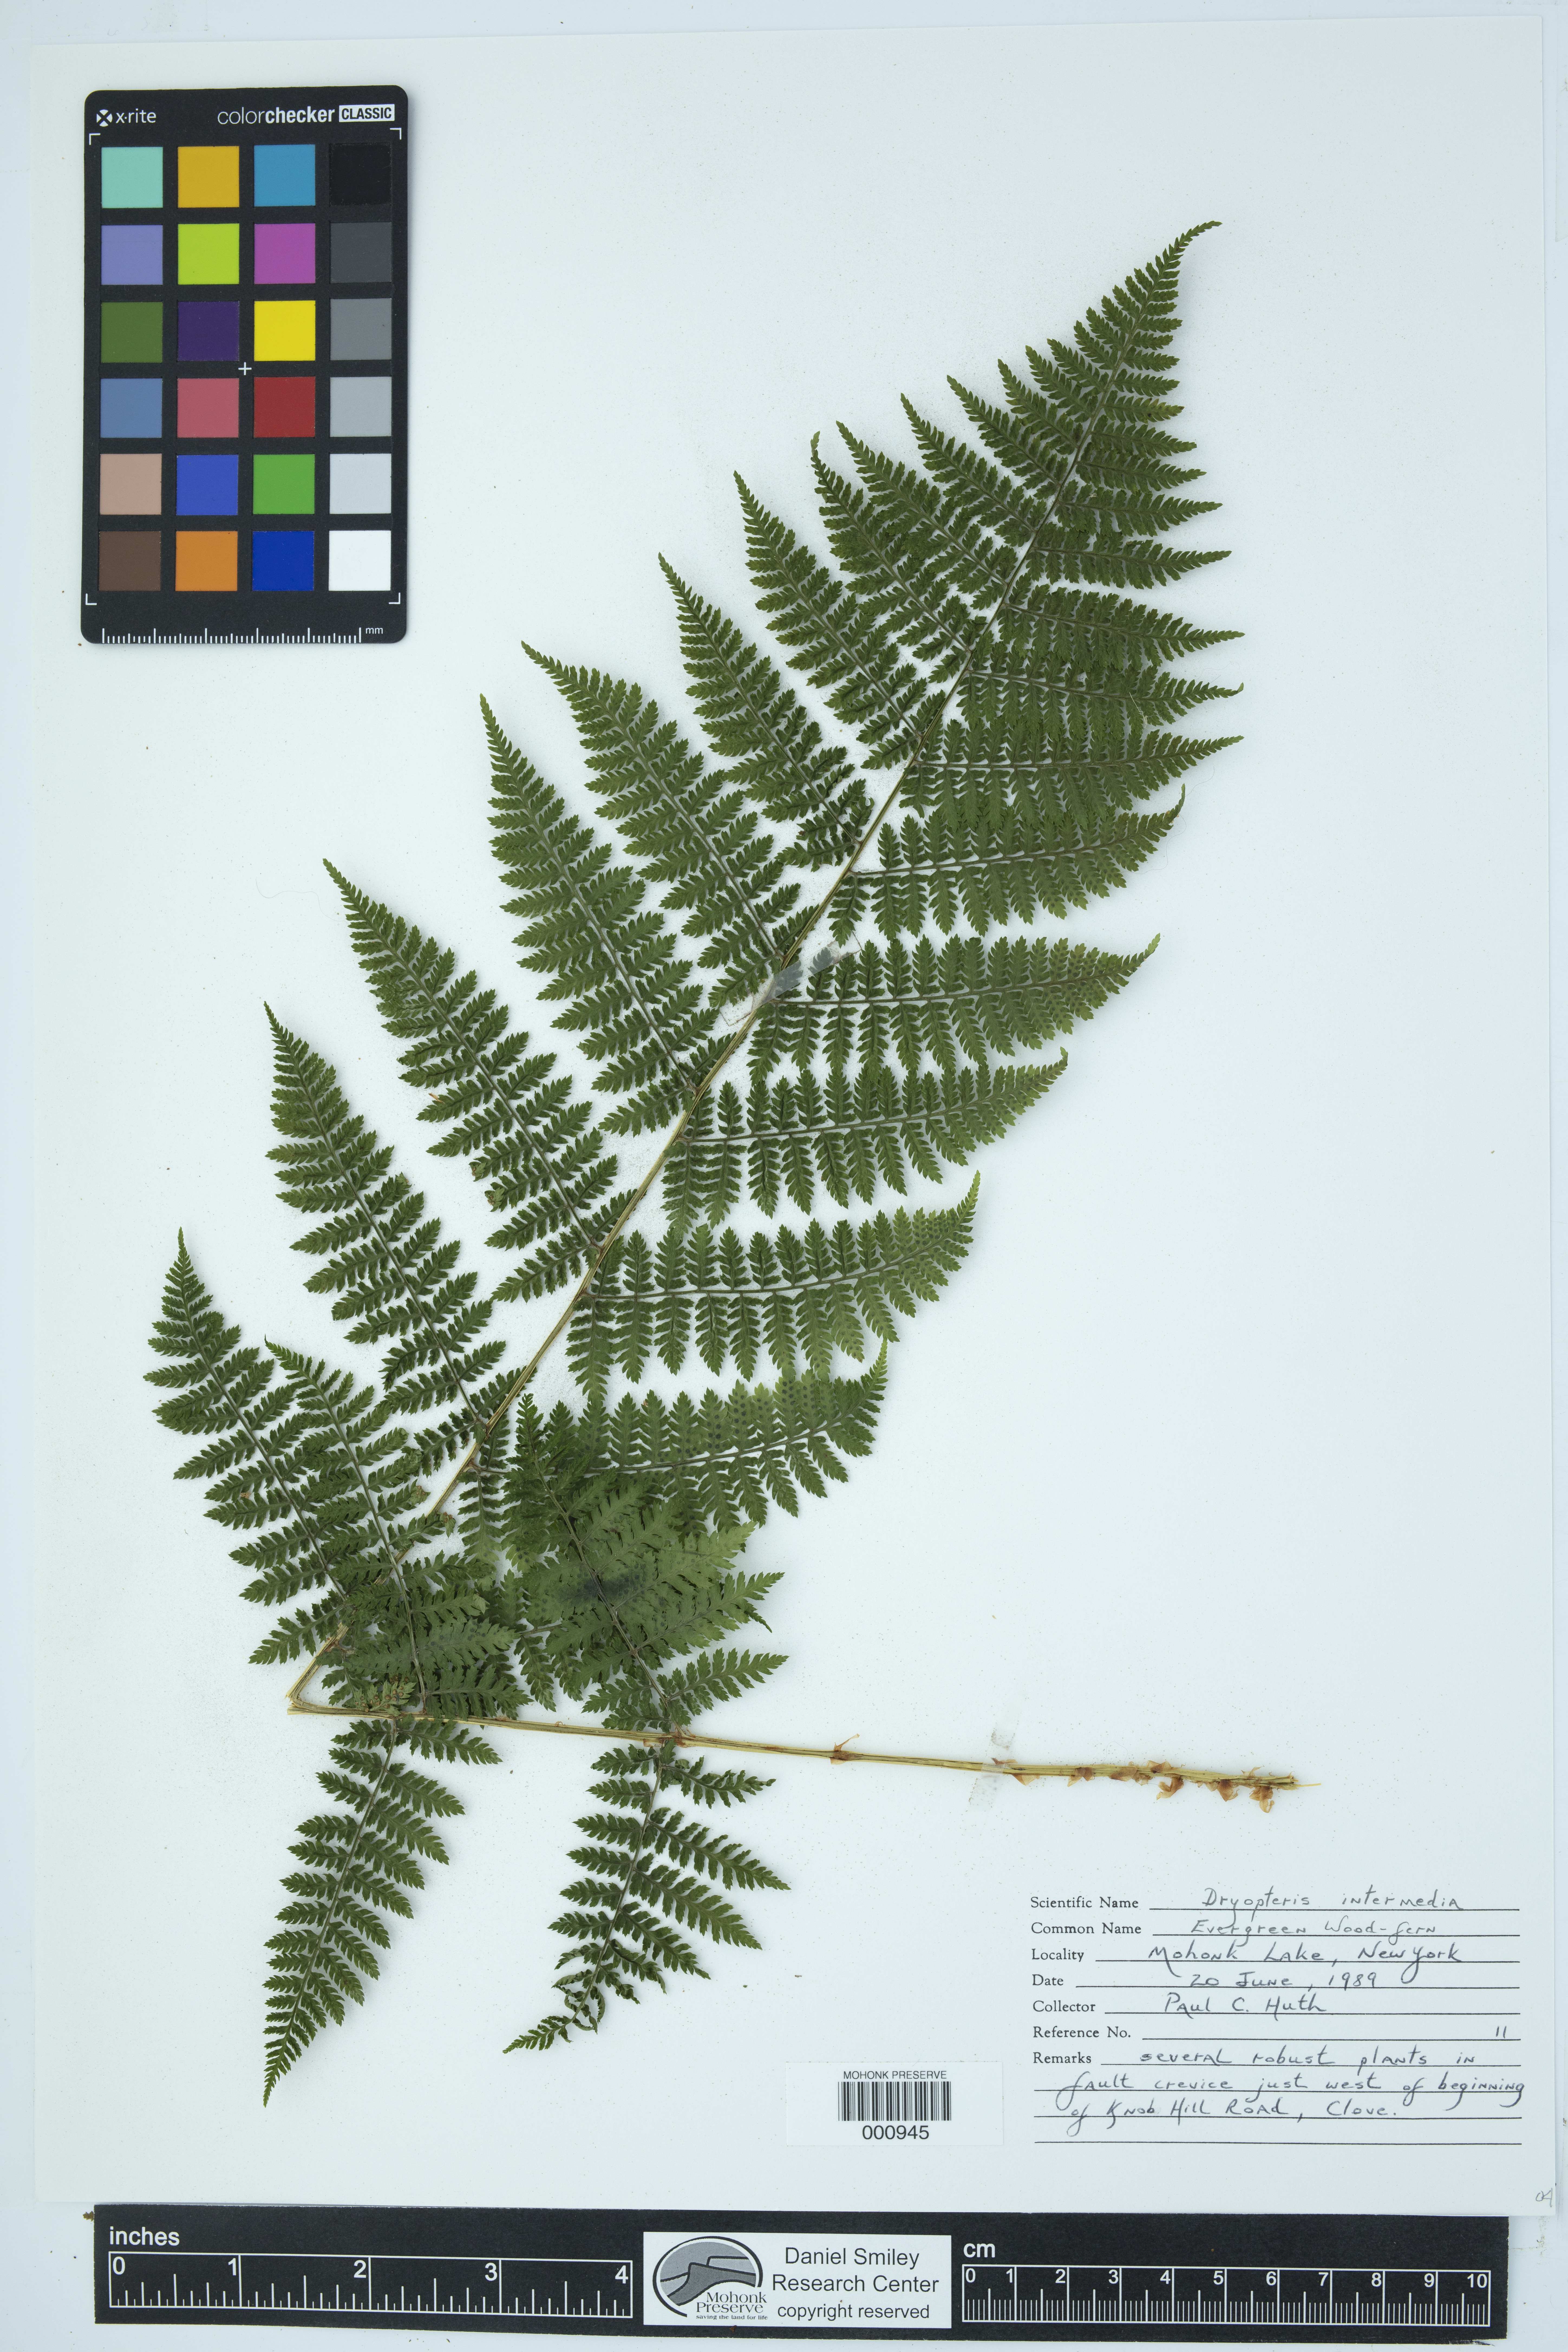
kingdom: Plantae
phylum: Tracheophyta
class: Polypodiopsida
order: Polypodiales
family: Dryopteridaceae
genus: Dryopteris
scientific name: Dryopteris intermedia
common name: Evergreen wood fern
